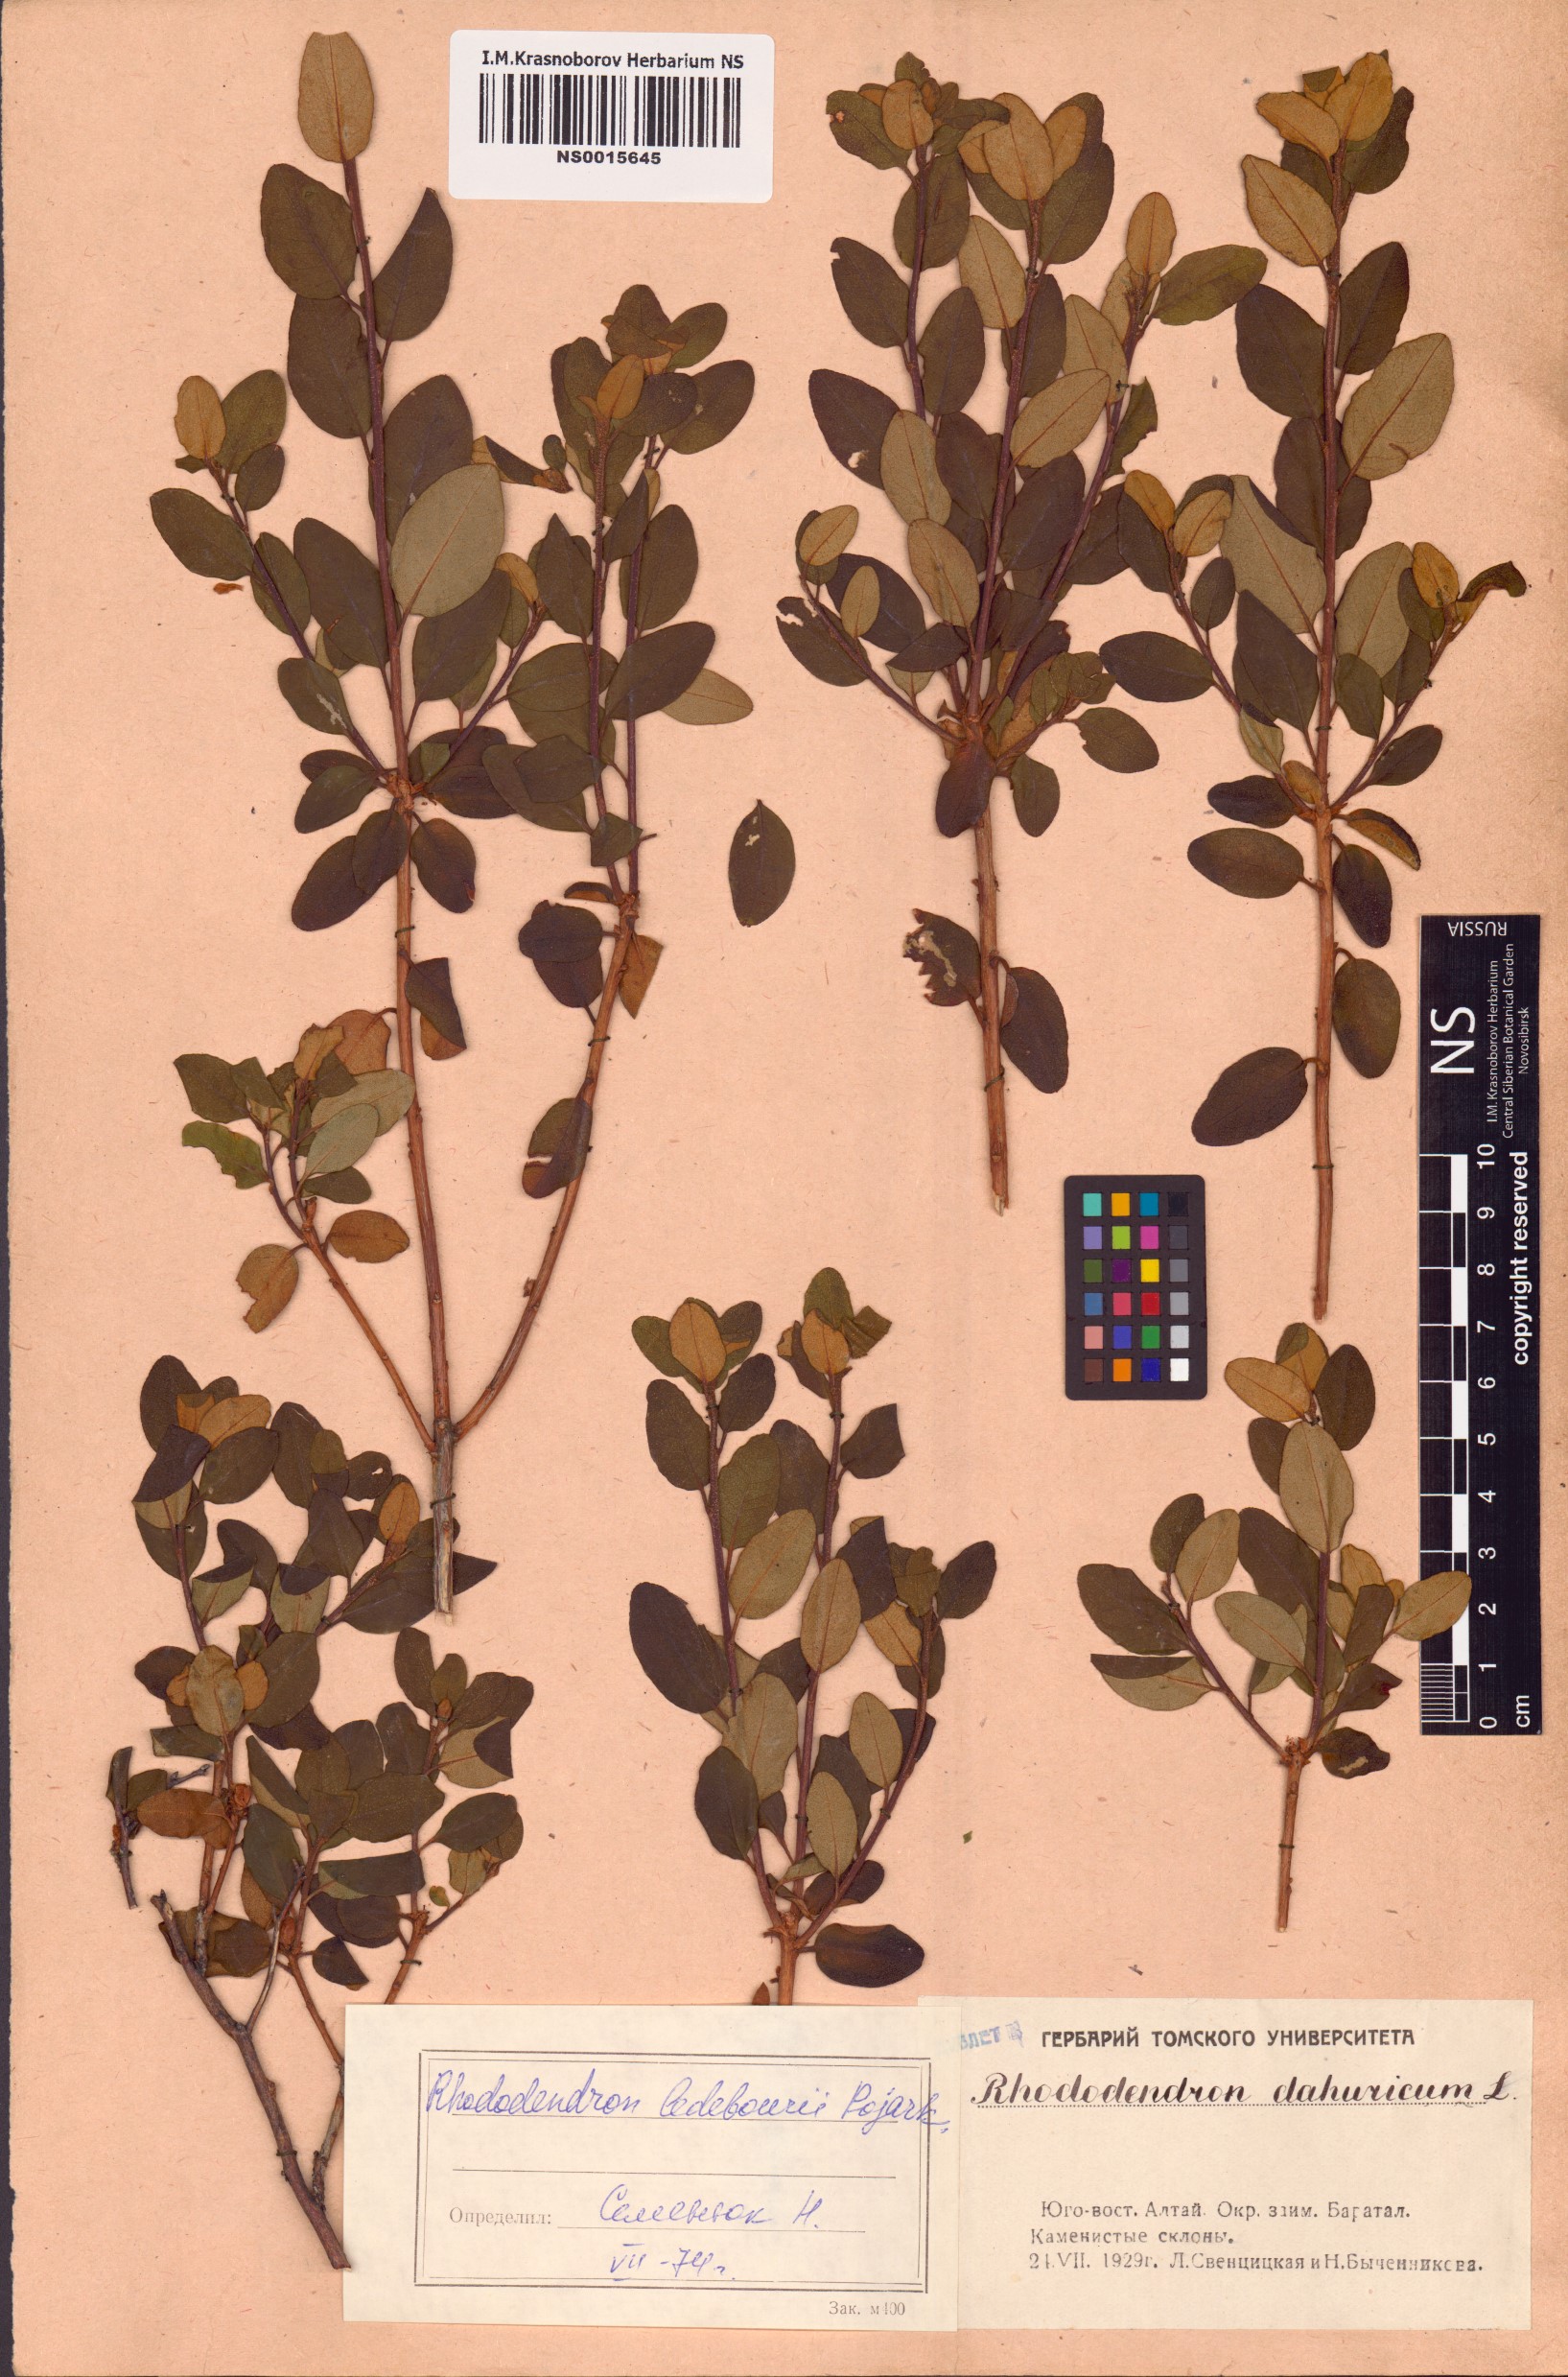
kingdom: Plantae
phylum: Tracheophyta
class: Magnoliopsida
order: Ericales
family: Ericaceae
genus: Rhododendron
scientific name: Rhododendron dauricum
